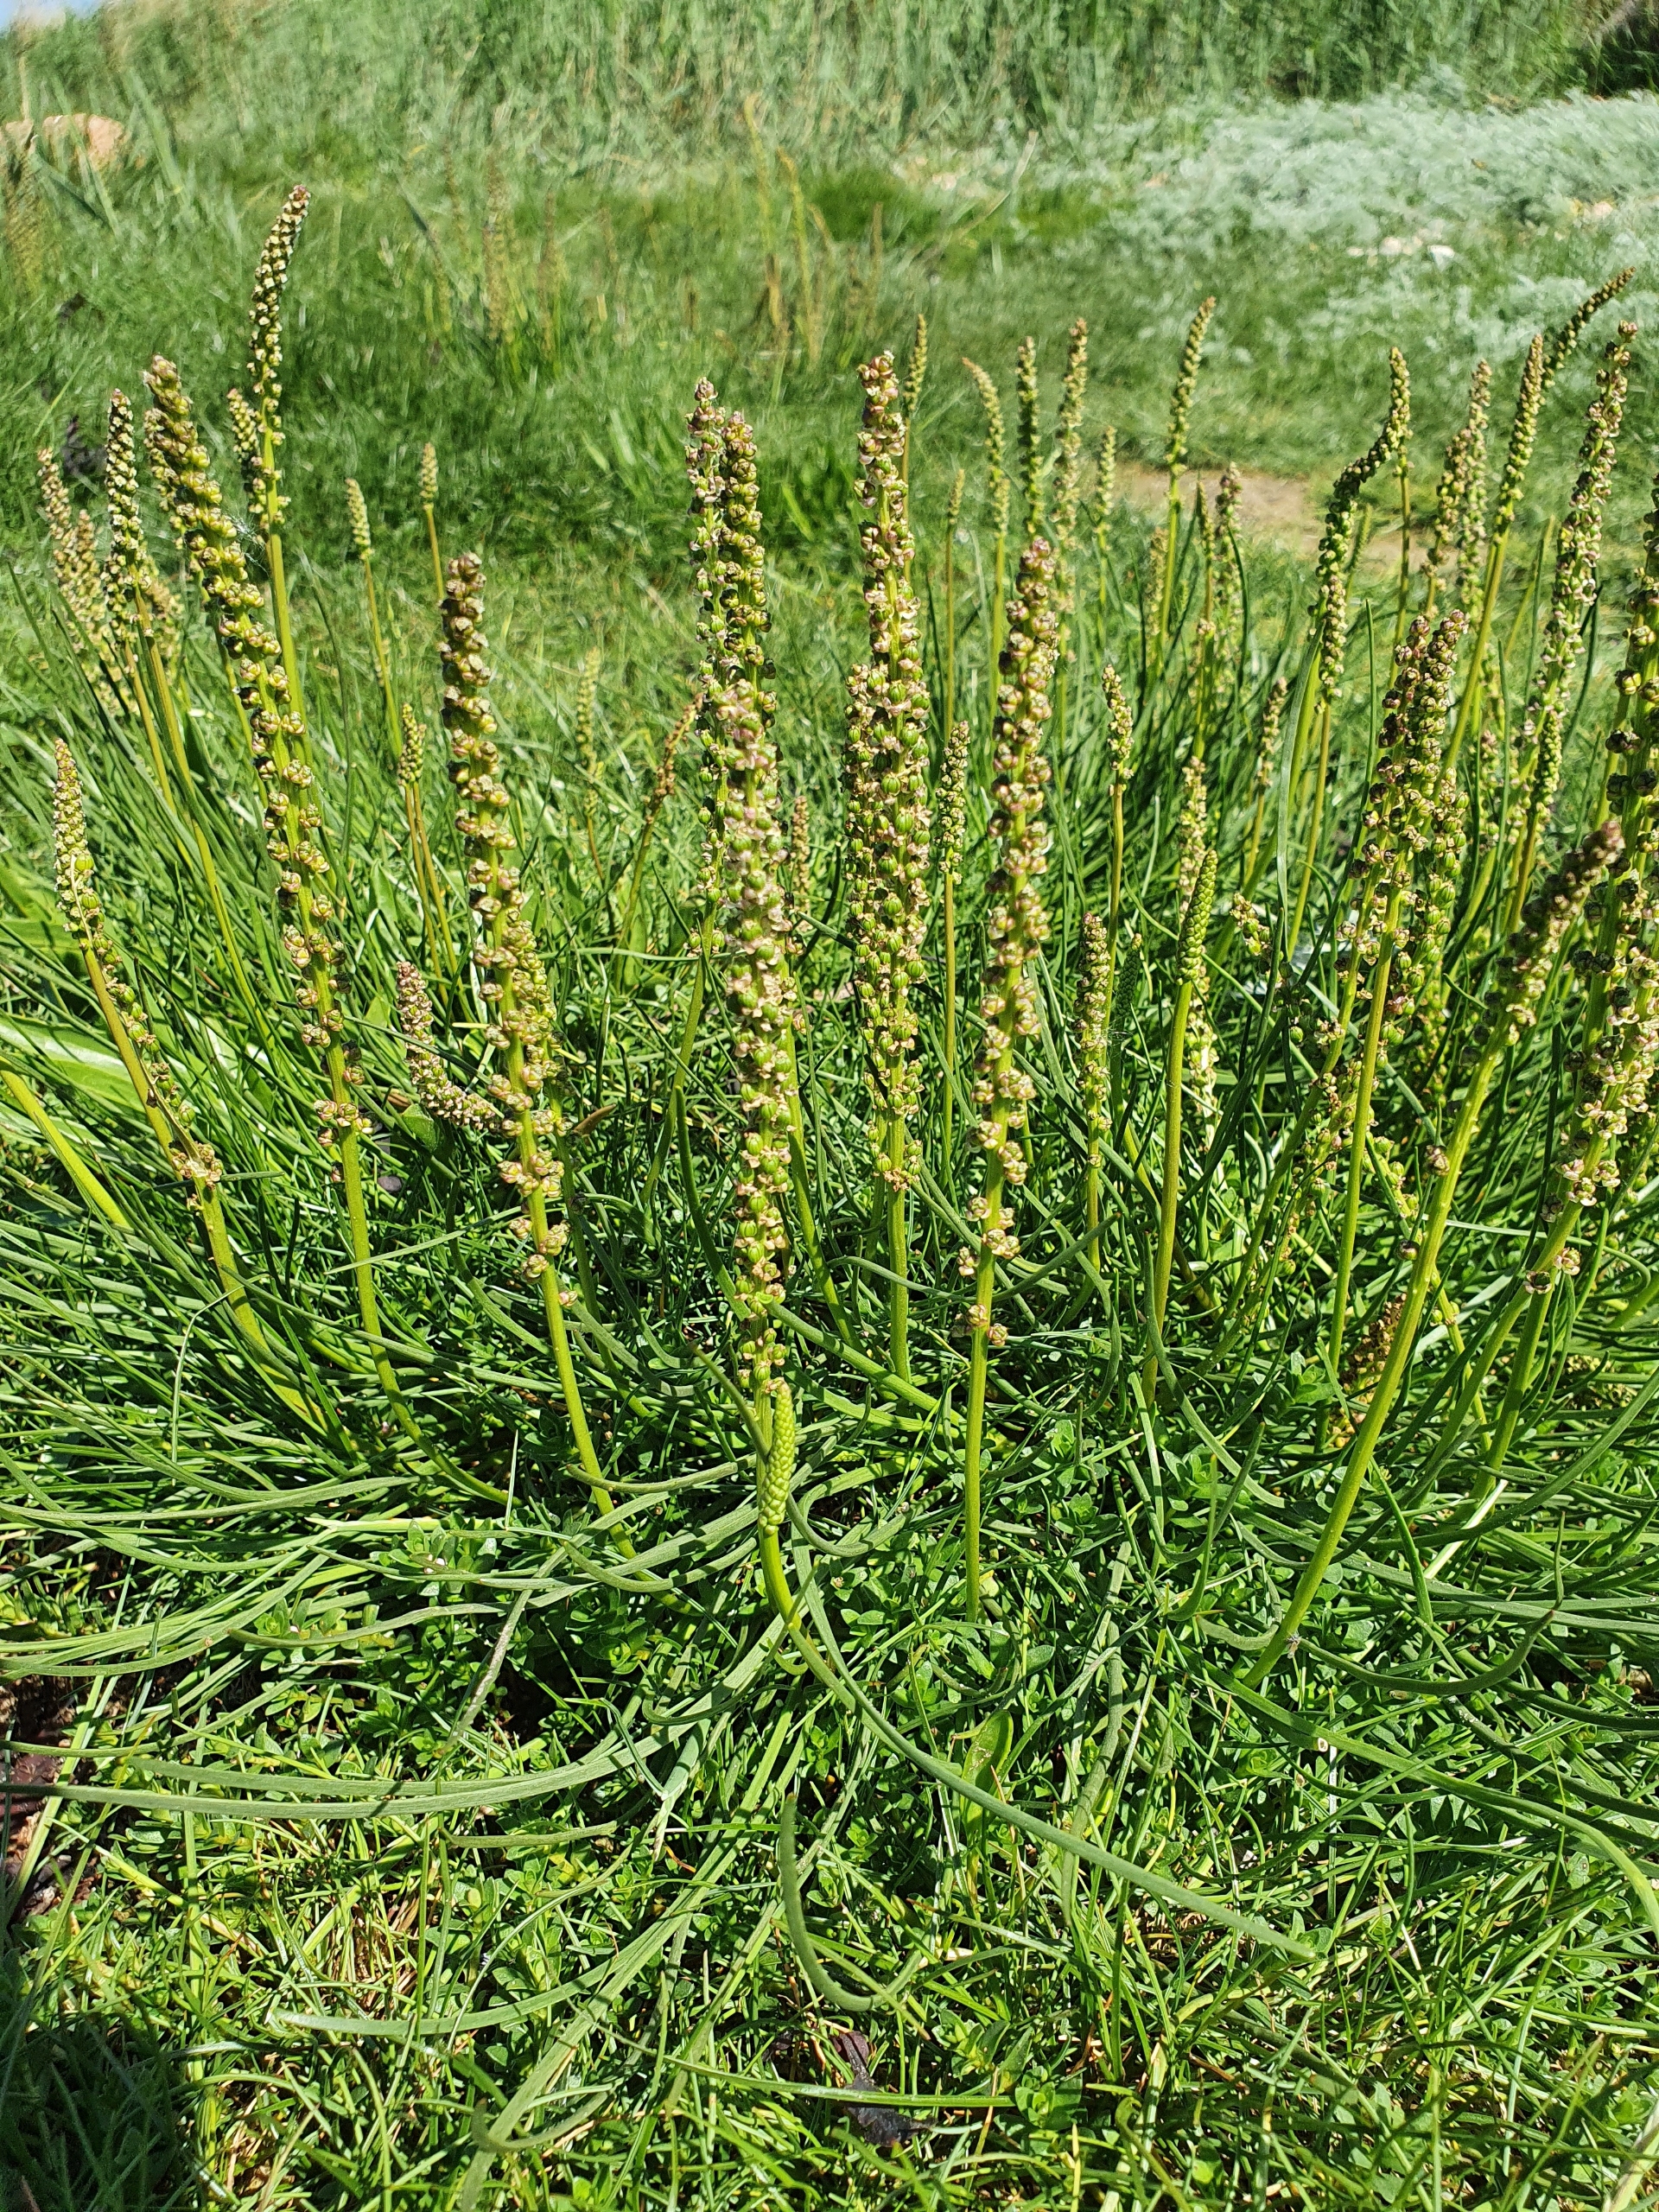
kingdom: Plantae
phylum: Tracheophyta
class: Magnoliopsida
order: Lamiales
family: Plantaginaceae
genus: Plantago
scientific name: Plantago maritima
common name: Strand-vejbred
